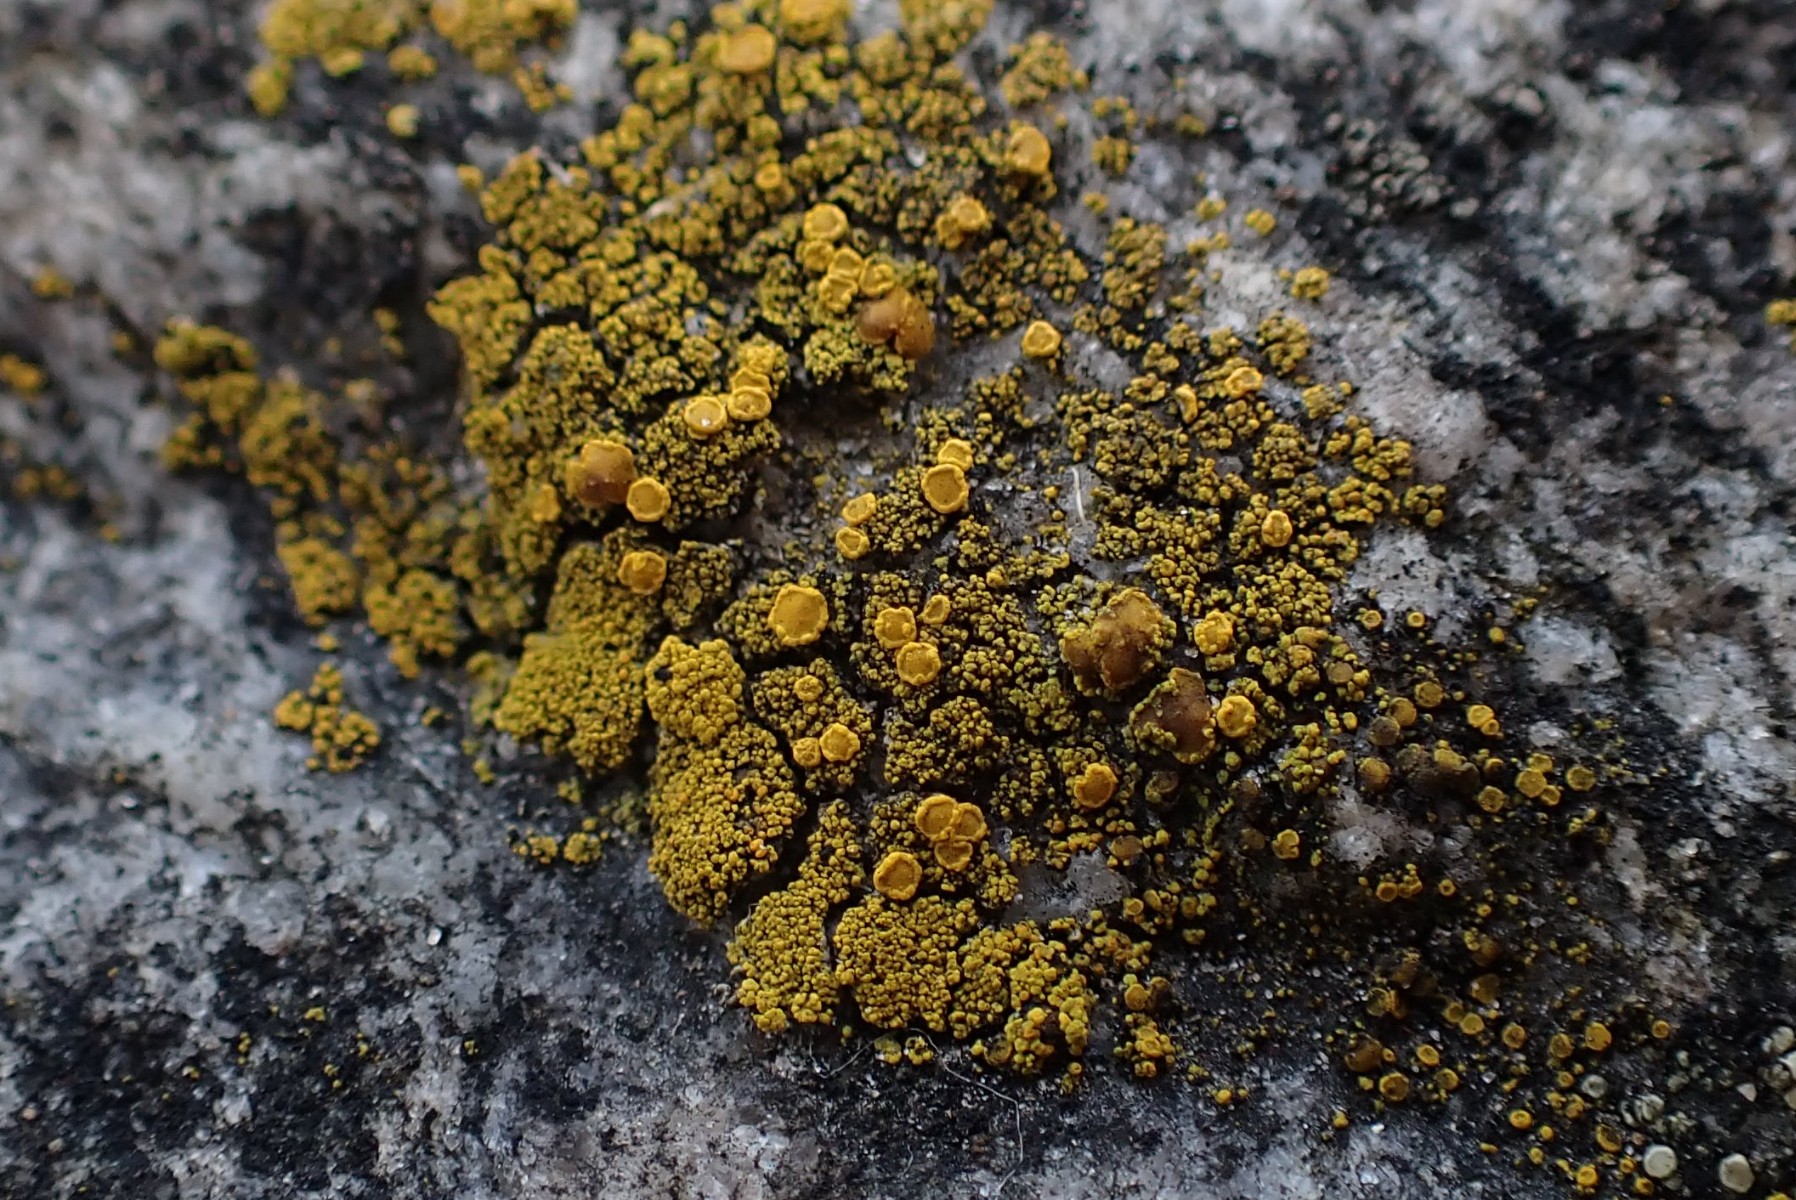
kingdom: Fungi
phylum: Ascomycota
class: Candelariomycetes
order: Candelariales
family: Candelariaceae
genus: Candelariella
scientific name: Candelariella vitellina
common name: almindelig æggeblommelav
